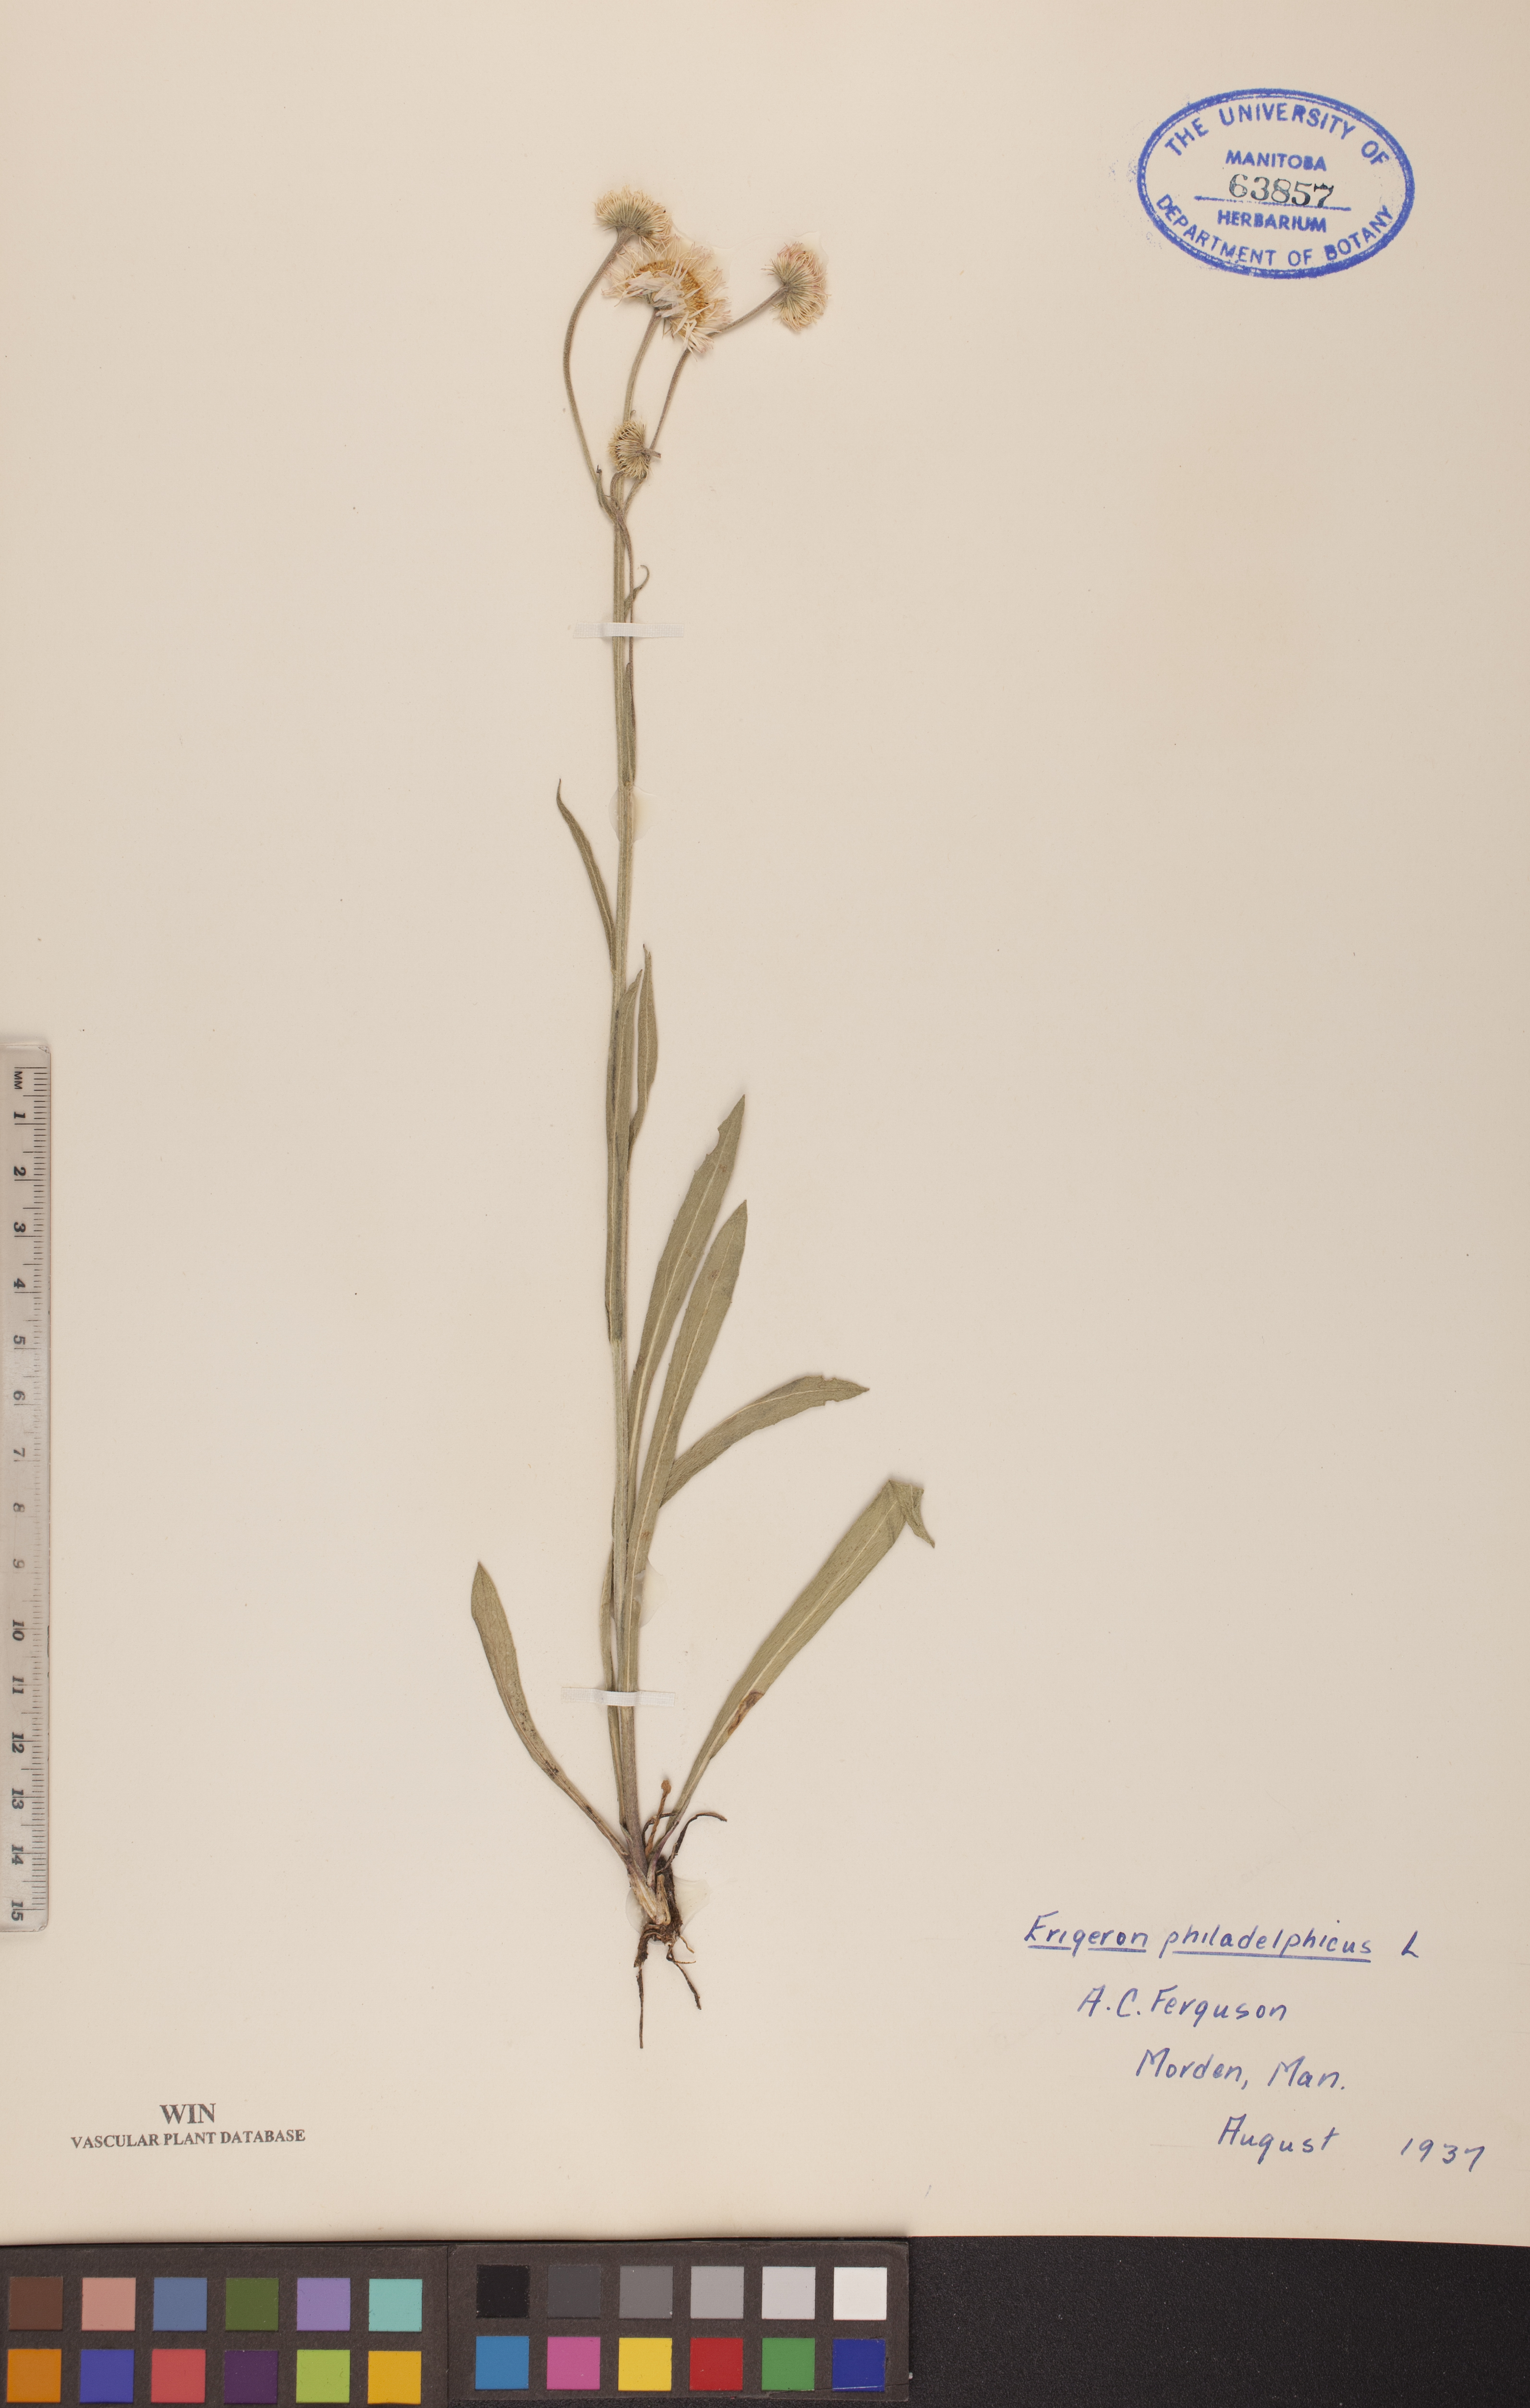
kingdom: Plantae
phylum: Tracheophyta
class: Magnoliopsida
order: Asterales
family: Asteraceae
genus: Erigeron
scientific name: Erigeron philadelphicus
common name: Robin's-plantain
